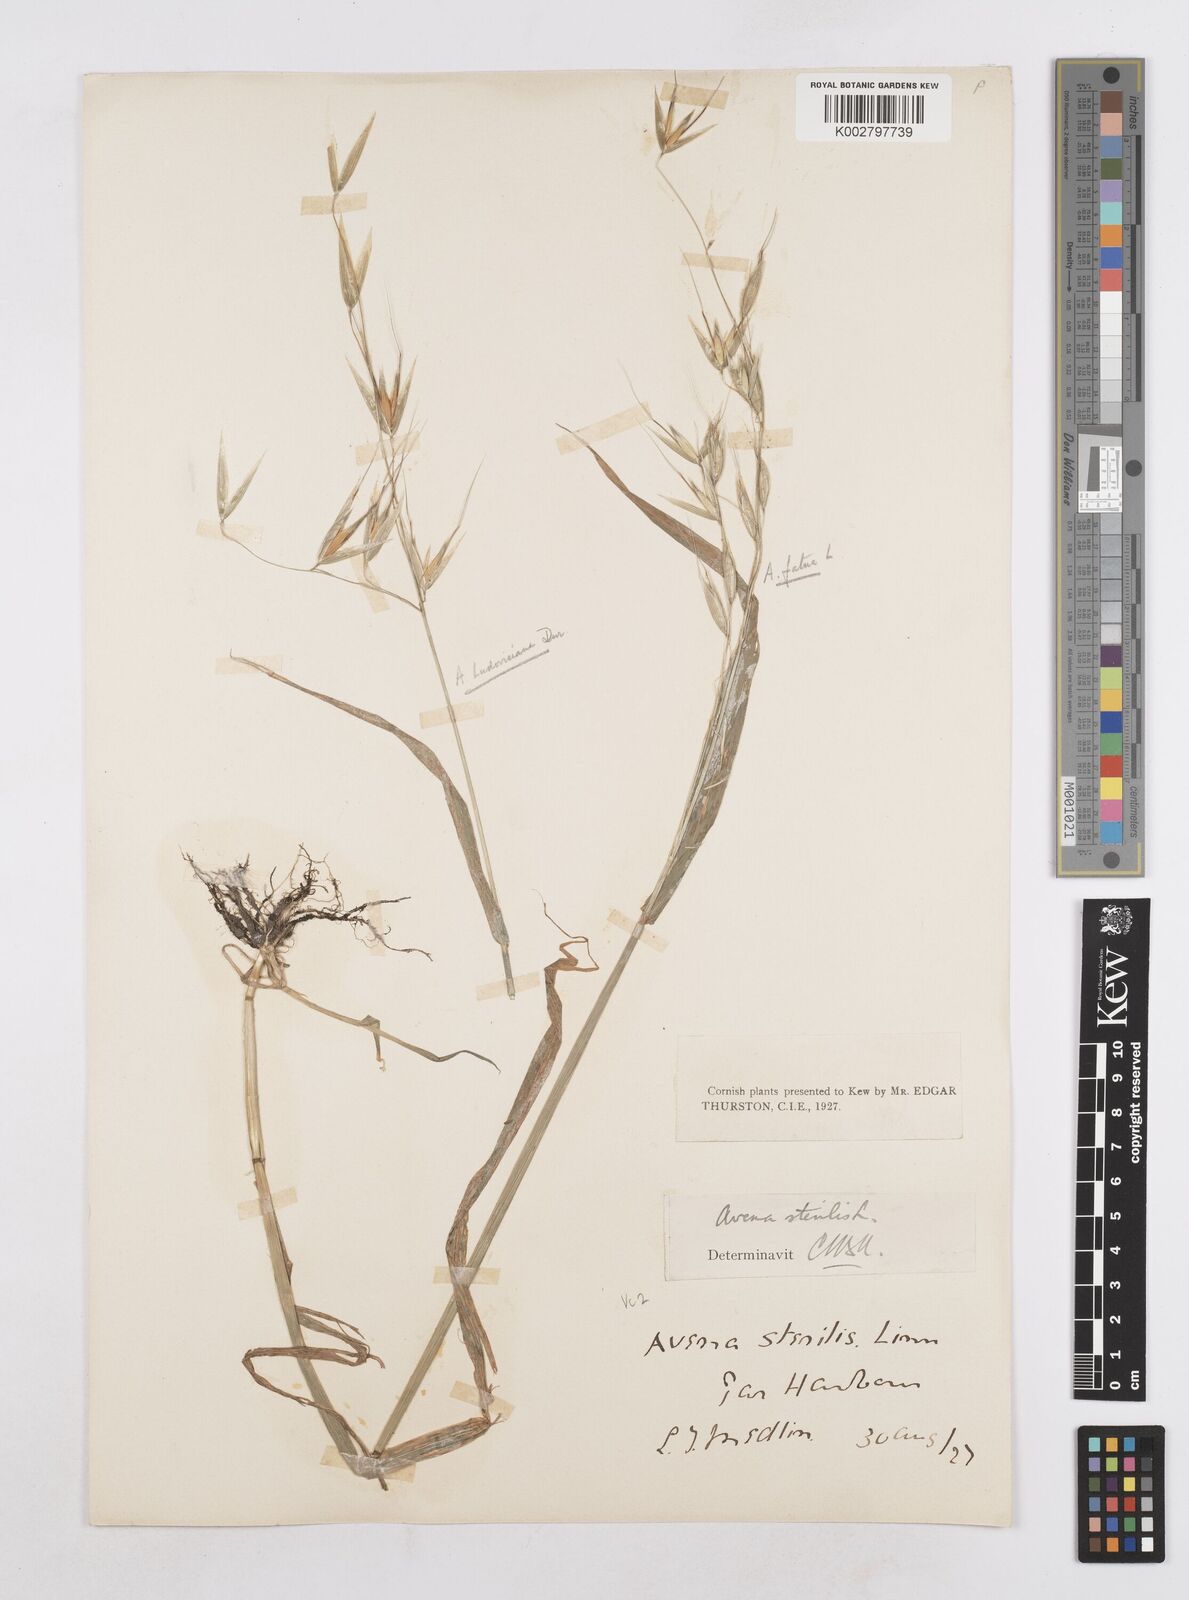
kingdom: Plantae
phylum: Tracheophyta
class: Liliopsida
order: Poales
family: Poaceae
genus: Avena
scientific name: Avena sterilis
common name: Animated oat
